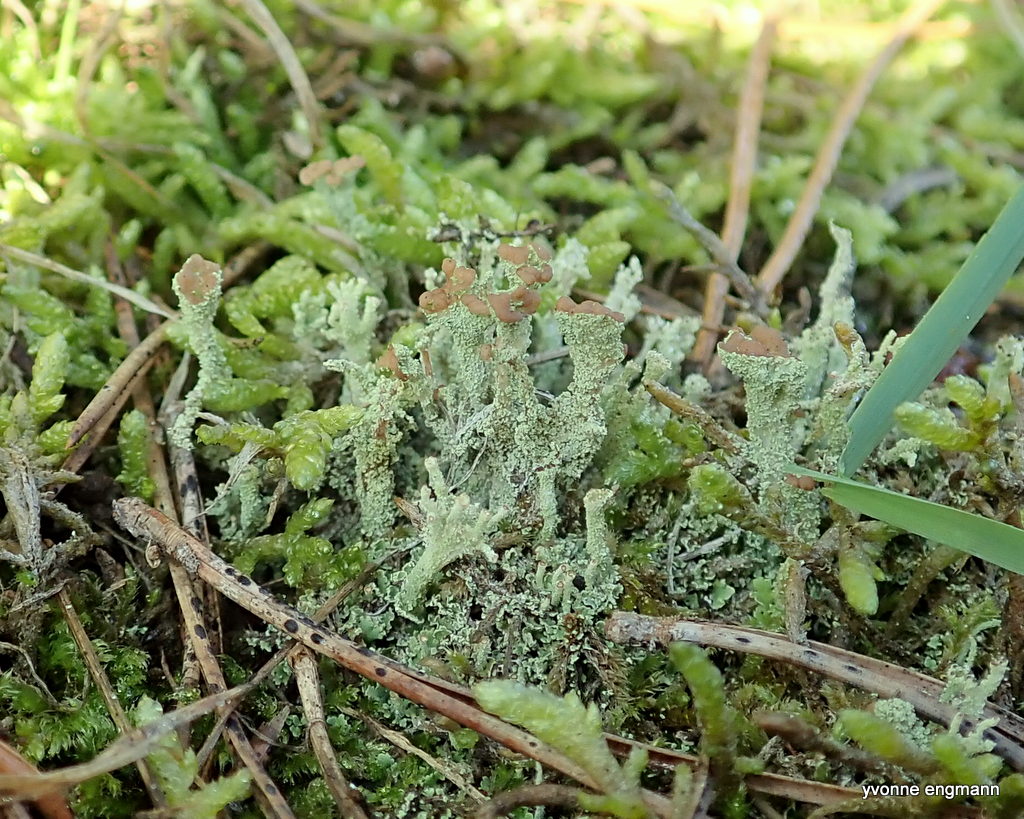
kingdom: Fungi
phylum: Ascomycota
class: Lecanoromycetes
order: Lecanorales
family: Cladoniaceae
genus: Cladonia
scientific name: Cladonia ramulosa
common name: kliddet bægerlav
